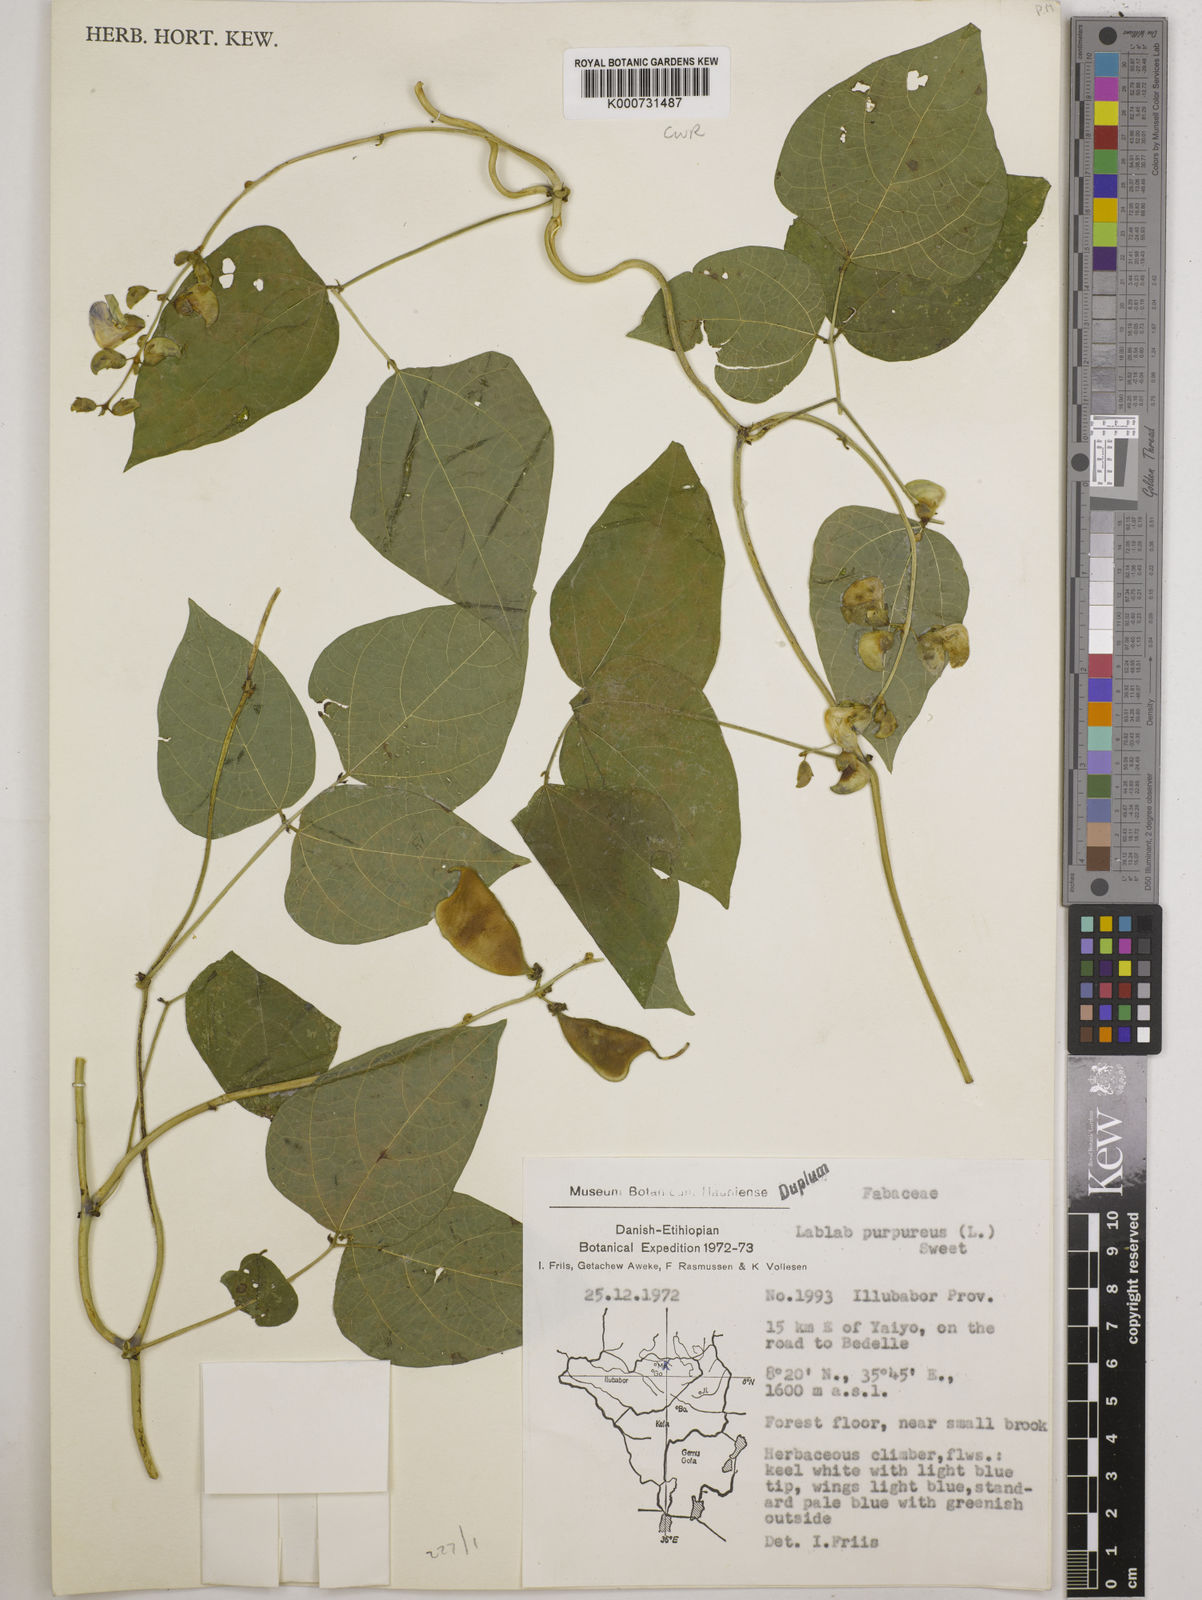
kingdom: Plantae
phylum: Tracheophyta
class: Magnoliopsida
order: Fabales
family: Fabaceae
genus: Lablab
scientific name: Lablab purpureus
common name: Lablab-bean
